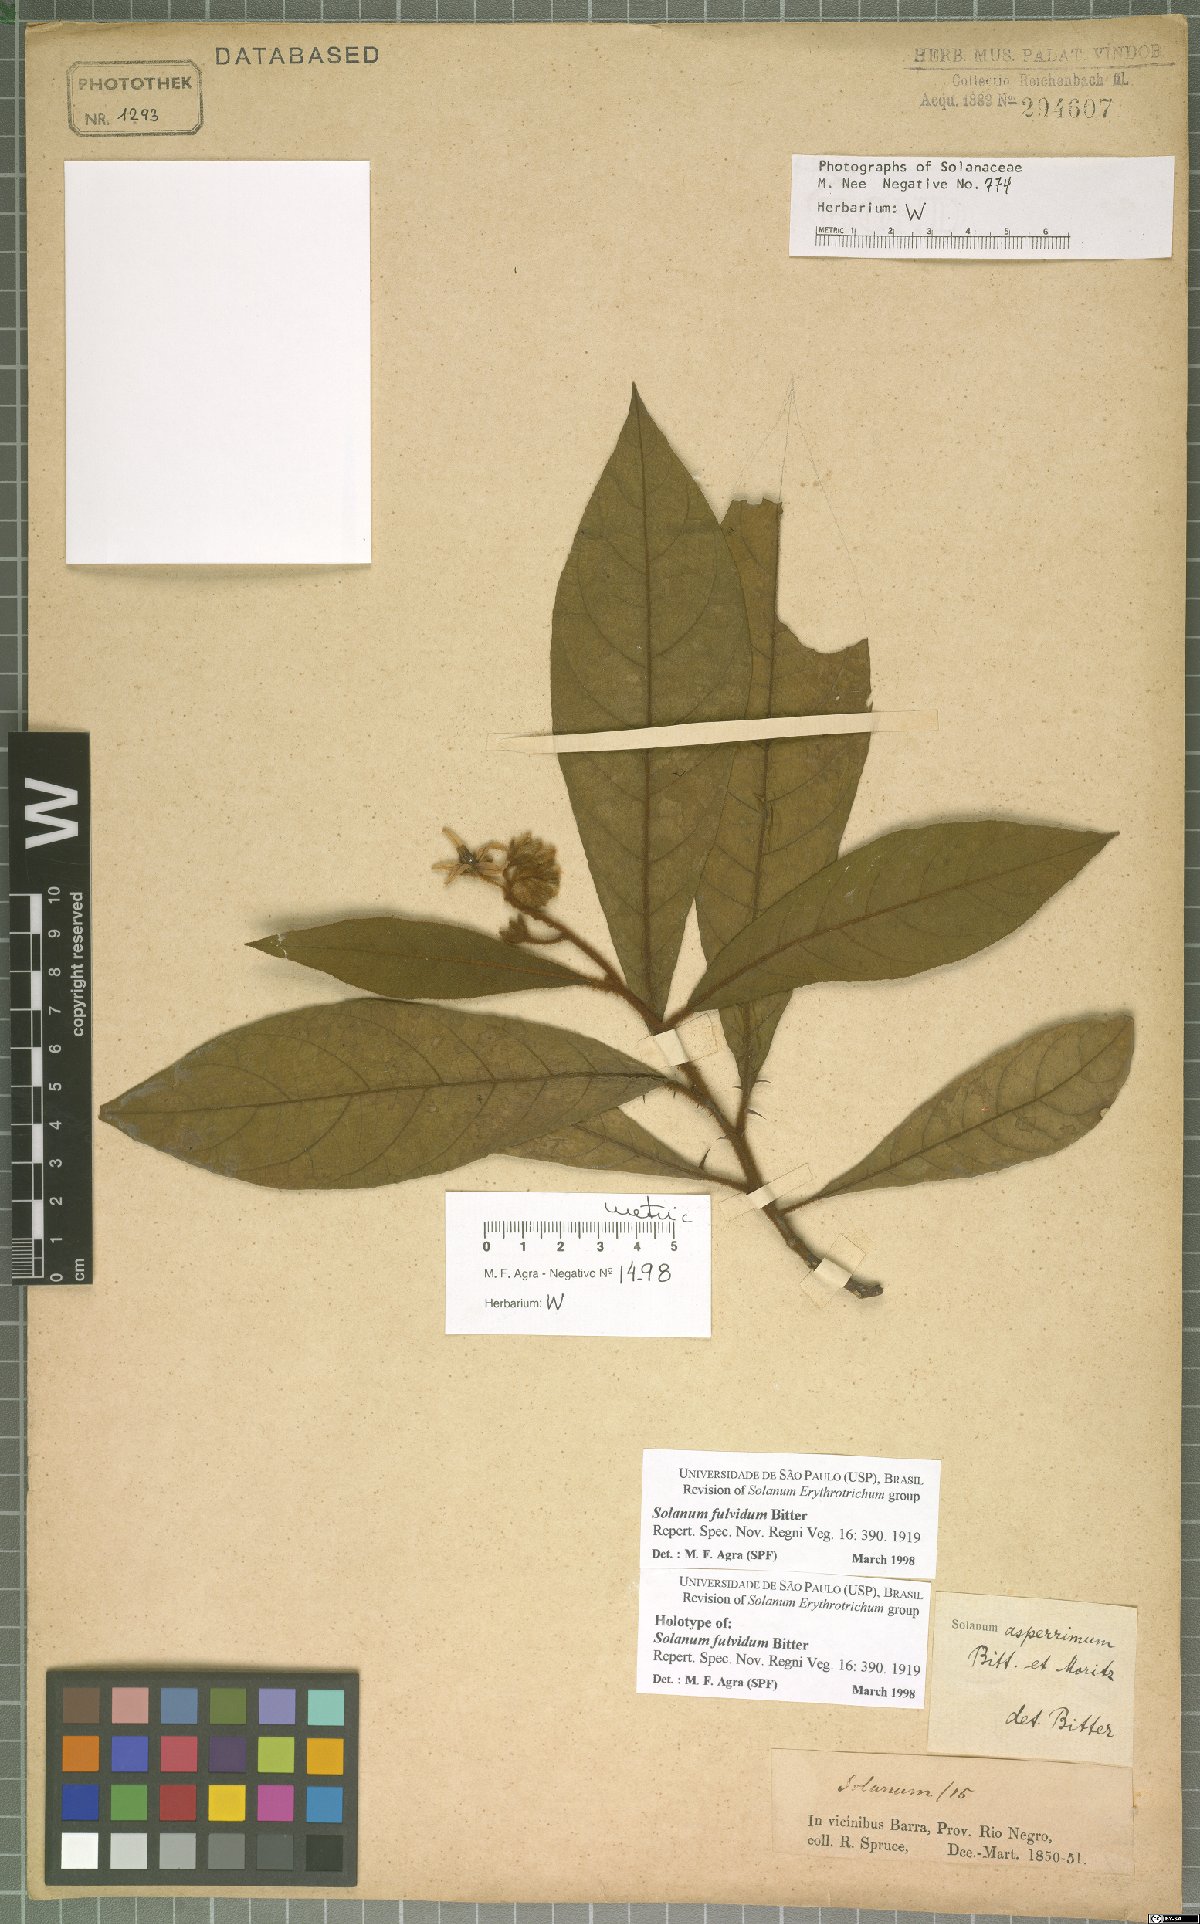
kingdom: Plantae
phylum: Tracheophyta
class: Magnoliopsida
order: Solanales
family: Solanaceae
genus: Solanum
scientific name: Solanum fulvidum
